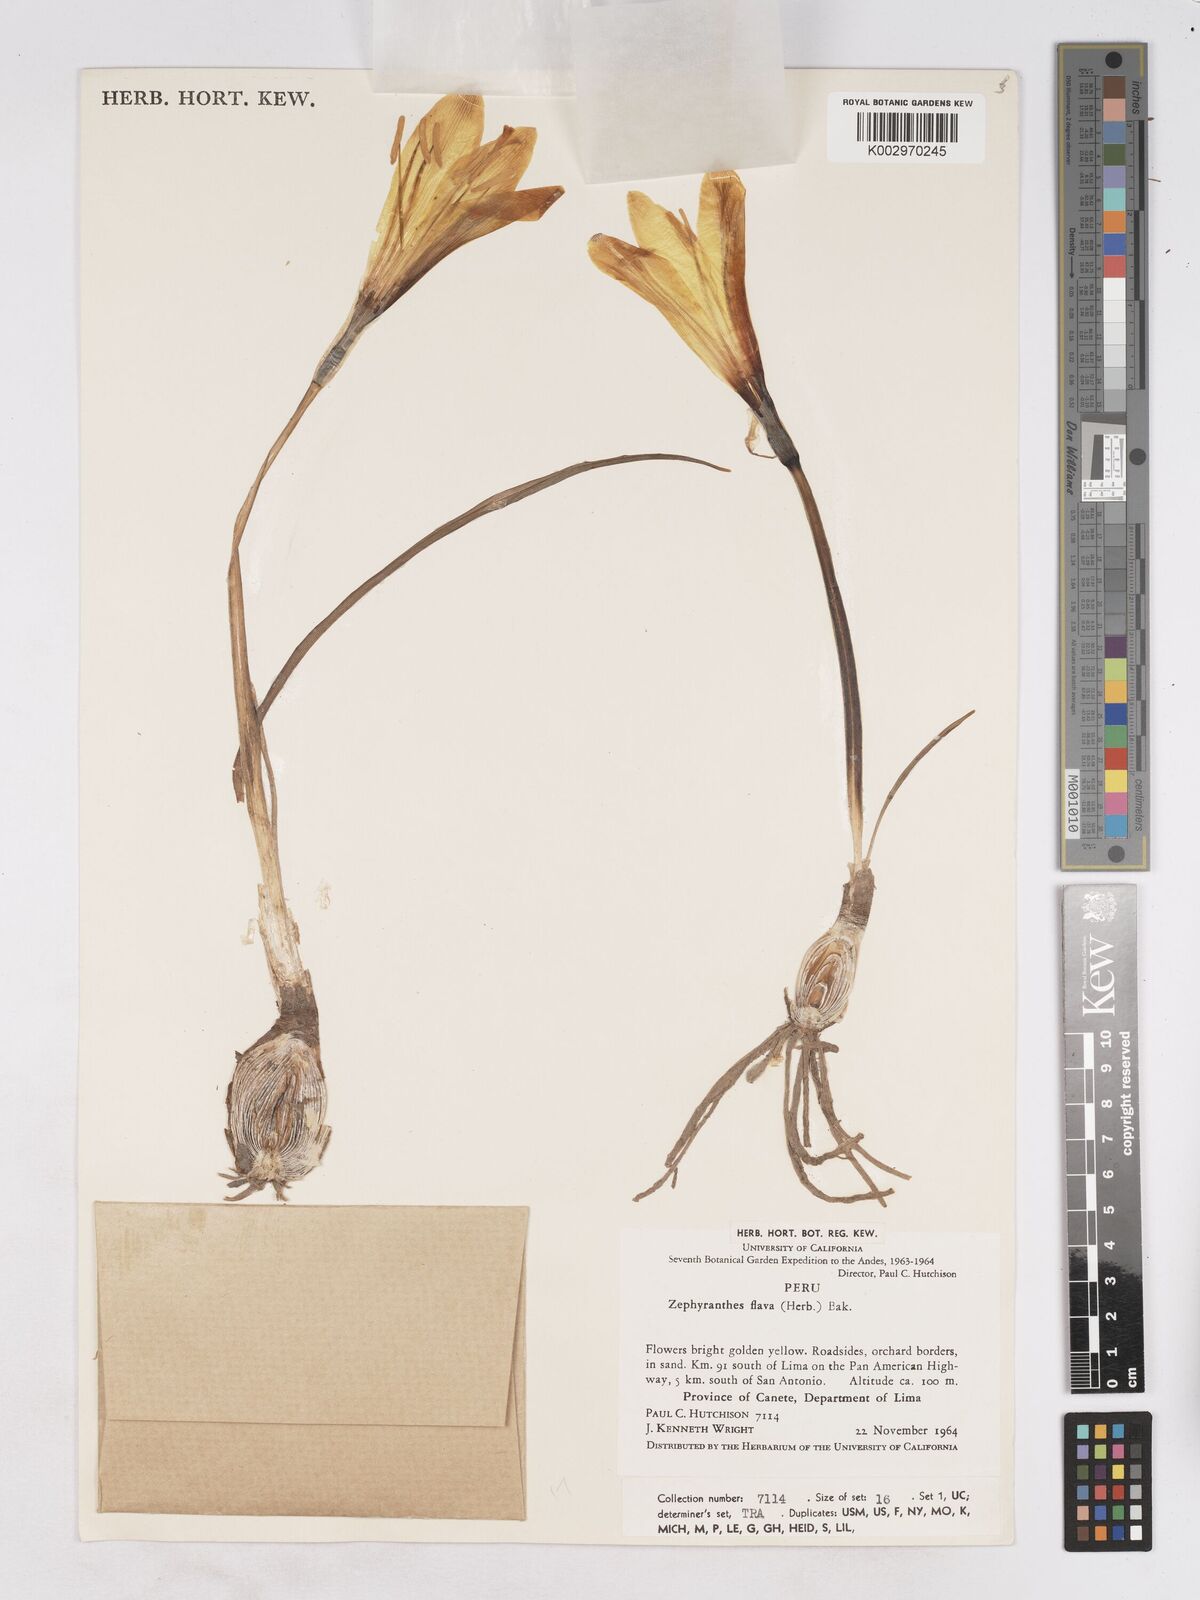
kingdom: Plantae
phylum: Tracheophyta
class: Liliopsida
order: Asparagales
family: Amaryllidaceae
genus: Pyrolirion
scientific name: Pyrolirion tubiflorum
